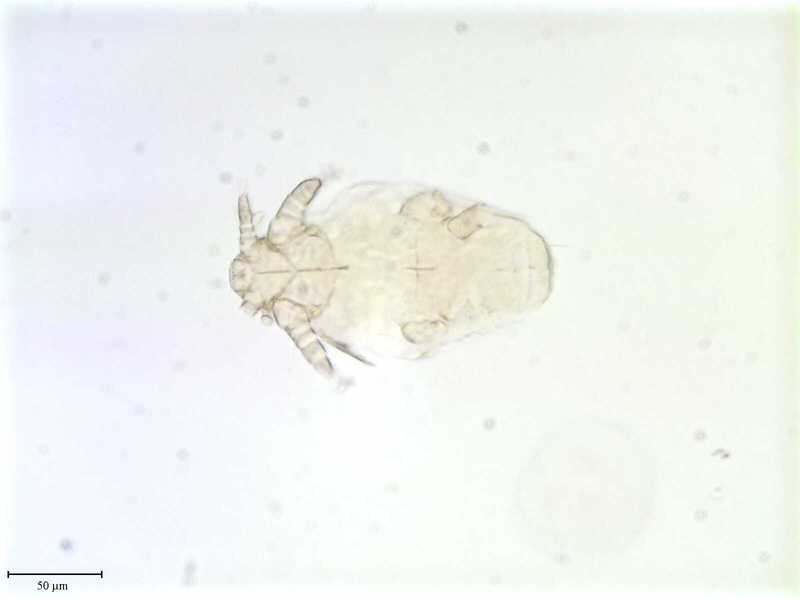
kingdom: Animalia
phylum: Arthropoda
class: Arachnida
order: Trombidiformes
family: Microdispidae
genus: Microdispoidides
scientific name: Microdispoidides
